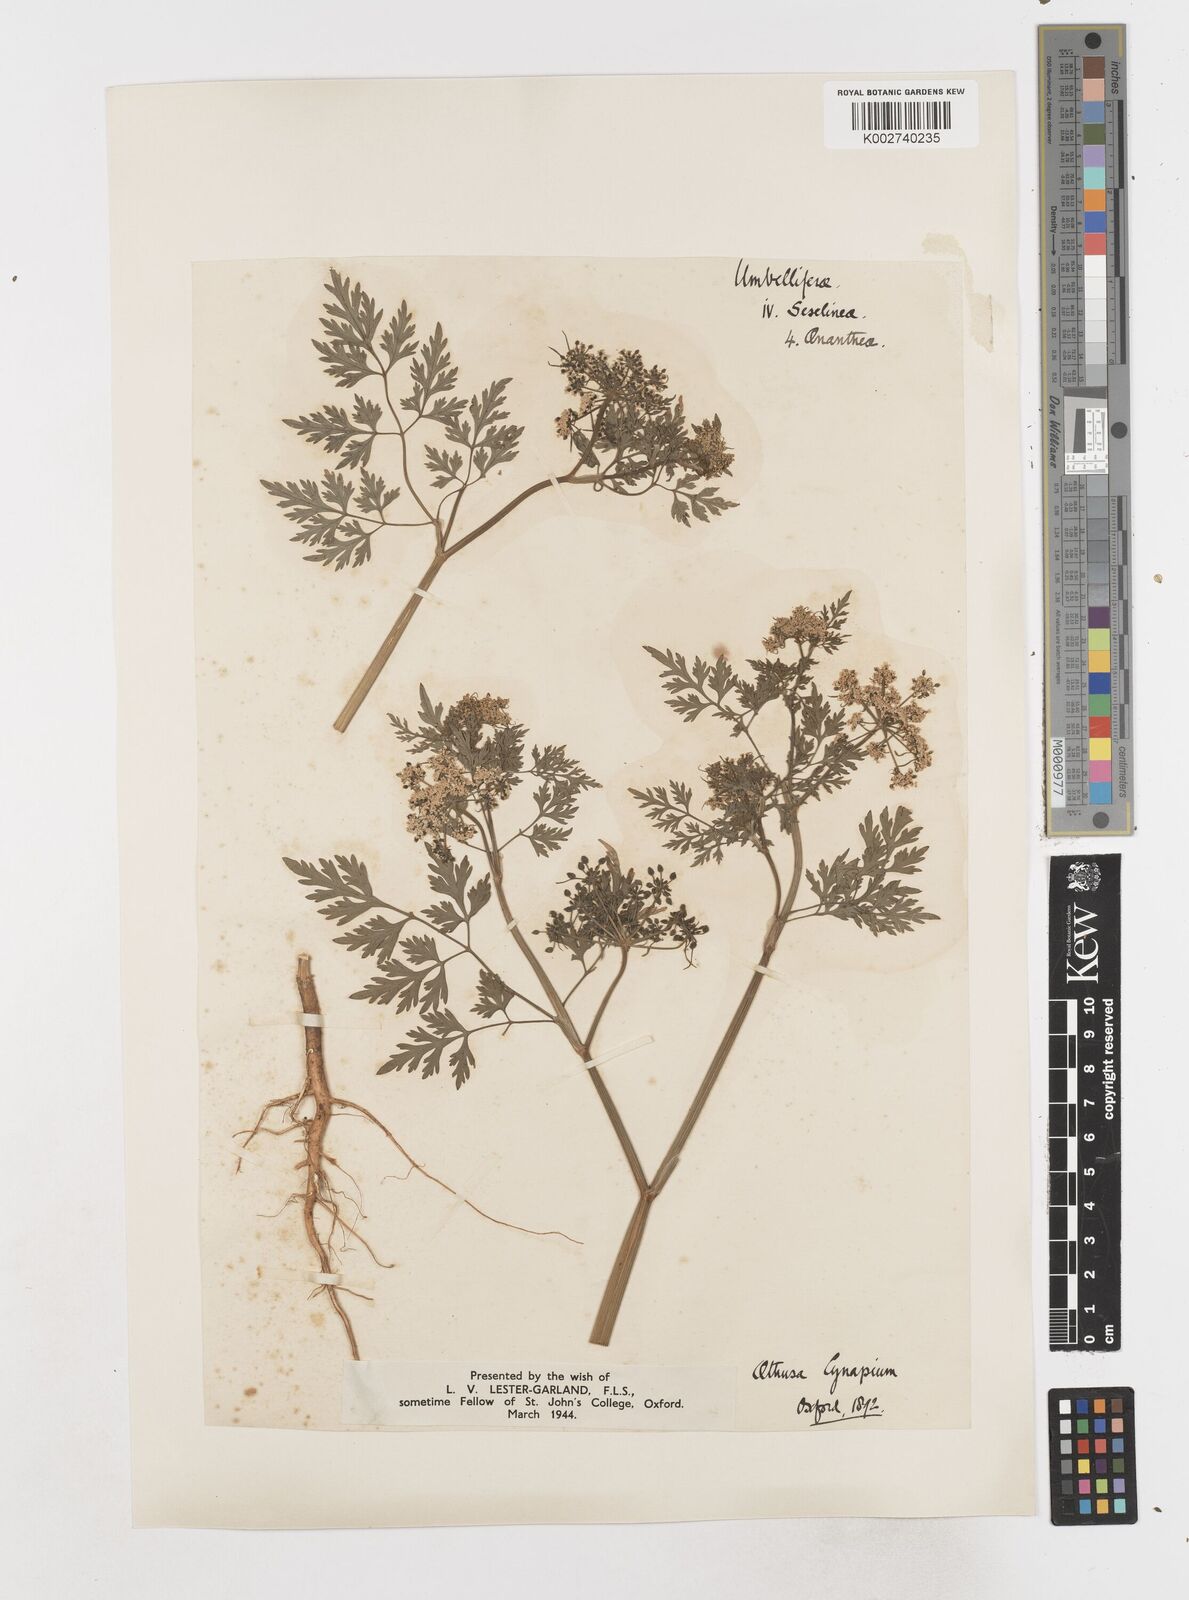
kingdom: Plantae
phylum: Tracheophyta
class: Magnoliopsida
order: Apiales
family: Apiaceae
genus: Aethusa
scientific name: Aethusa cynapium
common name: Fool's parsley
